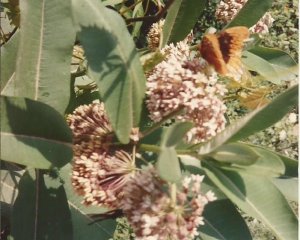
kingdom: Animalia
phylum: Arthropoda
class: Insecta
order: Lepidoptera
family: Nymphalidae
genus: Speyeria
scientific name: Speyeria diana
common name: Diana Fritillary
